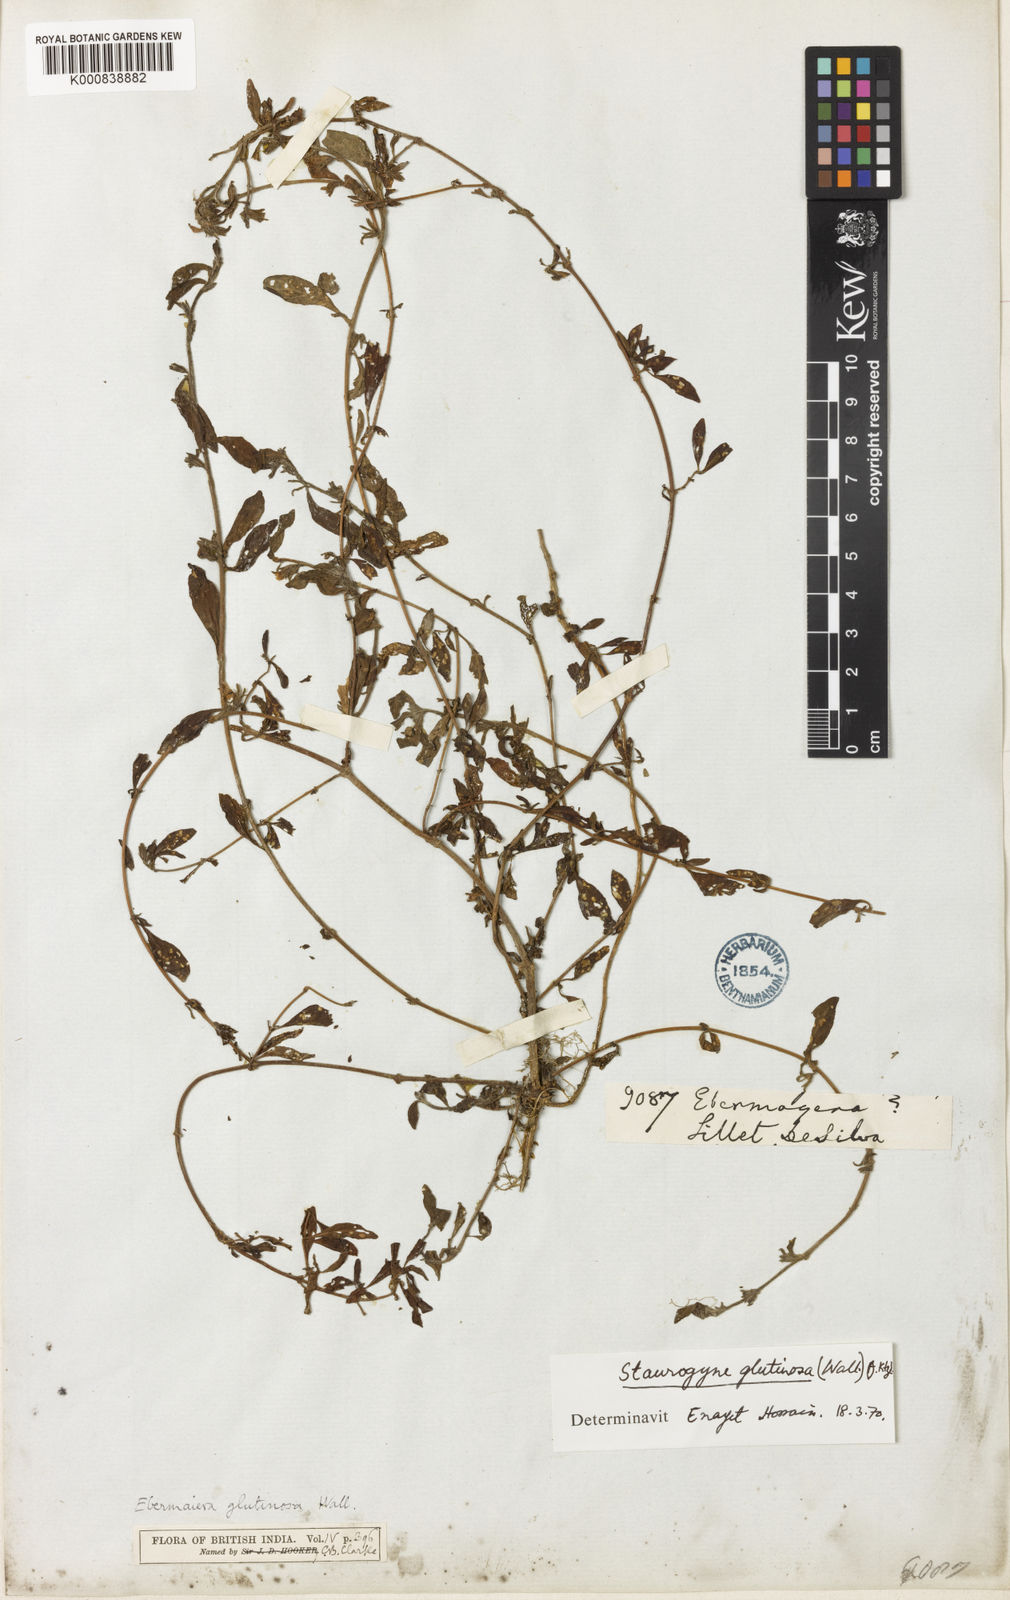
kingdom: Plantae
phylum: Tracheophyta
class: Magnoliopsida
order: Lamiales
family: Acanthaceae
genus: Staurogyne
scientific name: Staurogyne glutinosa
